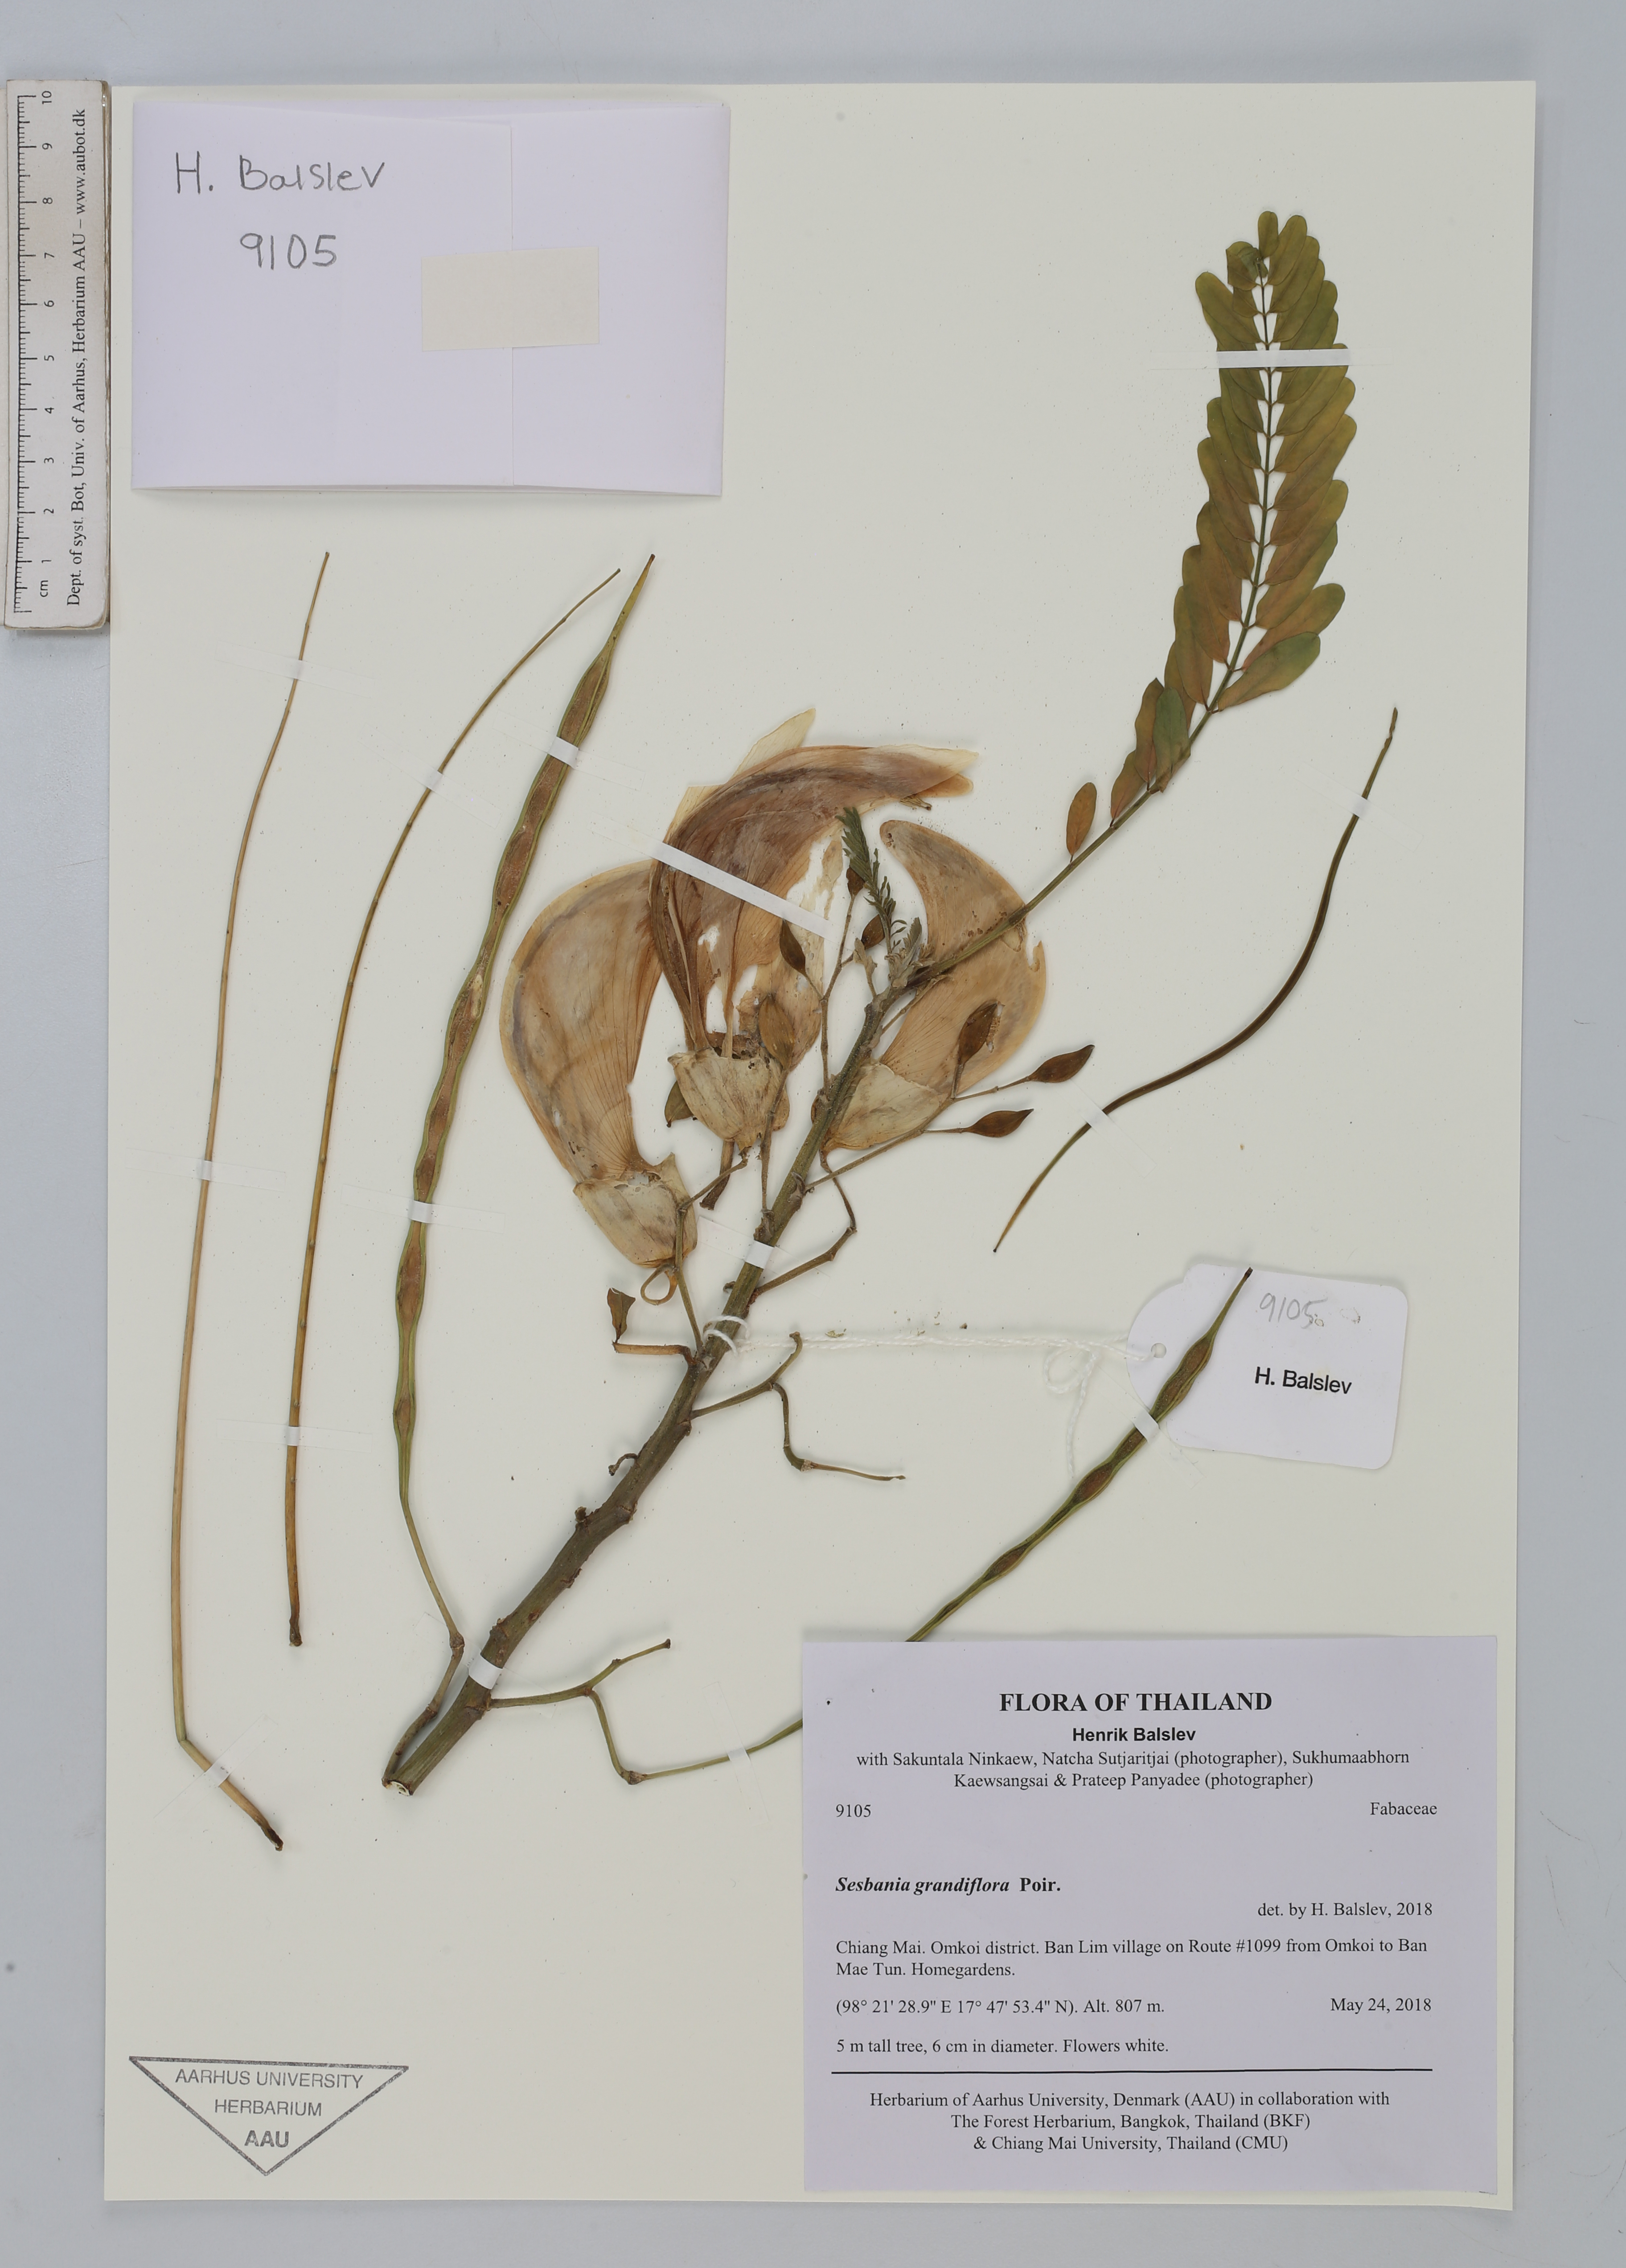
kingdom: Plantae
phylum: Tracheophyta
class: Magnoliopsida
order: Fabales
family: Fabaceae
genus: Sesbania
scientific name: Sesbania grandiflora
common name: Vegetable-hummingbird
